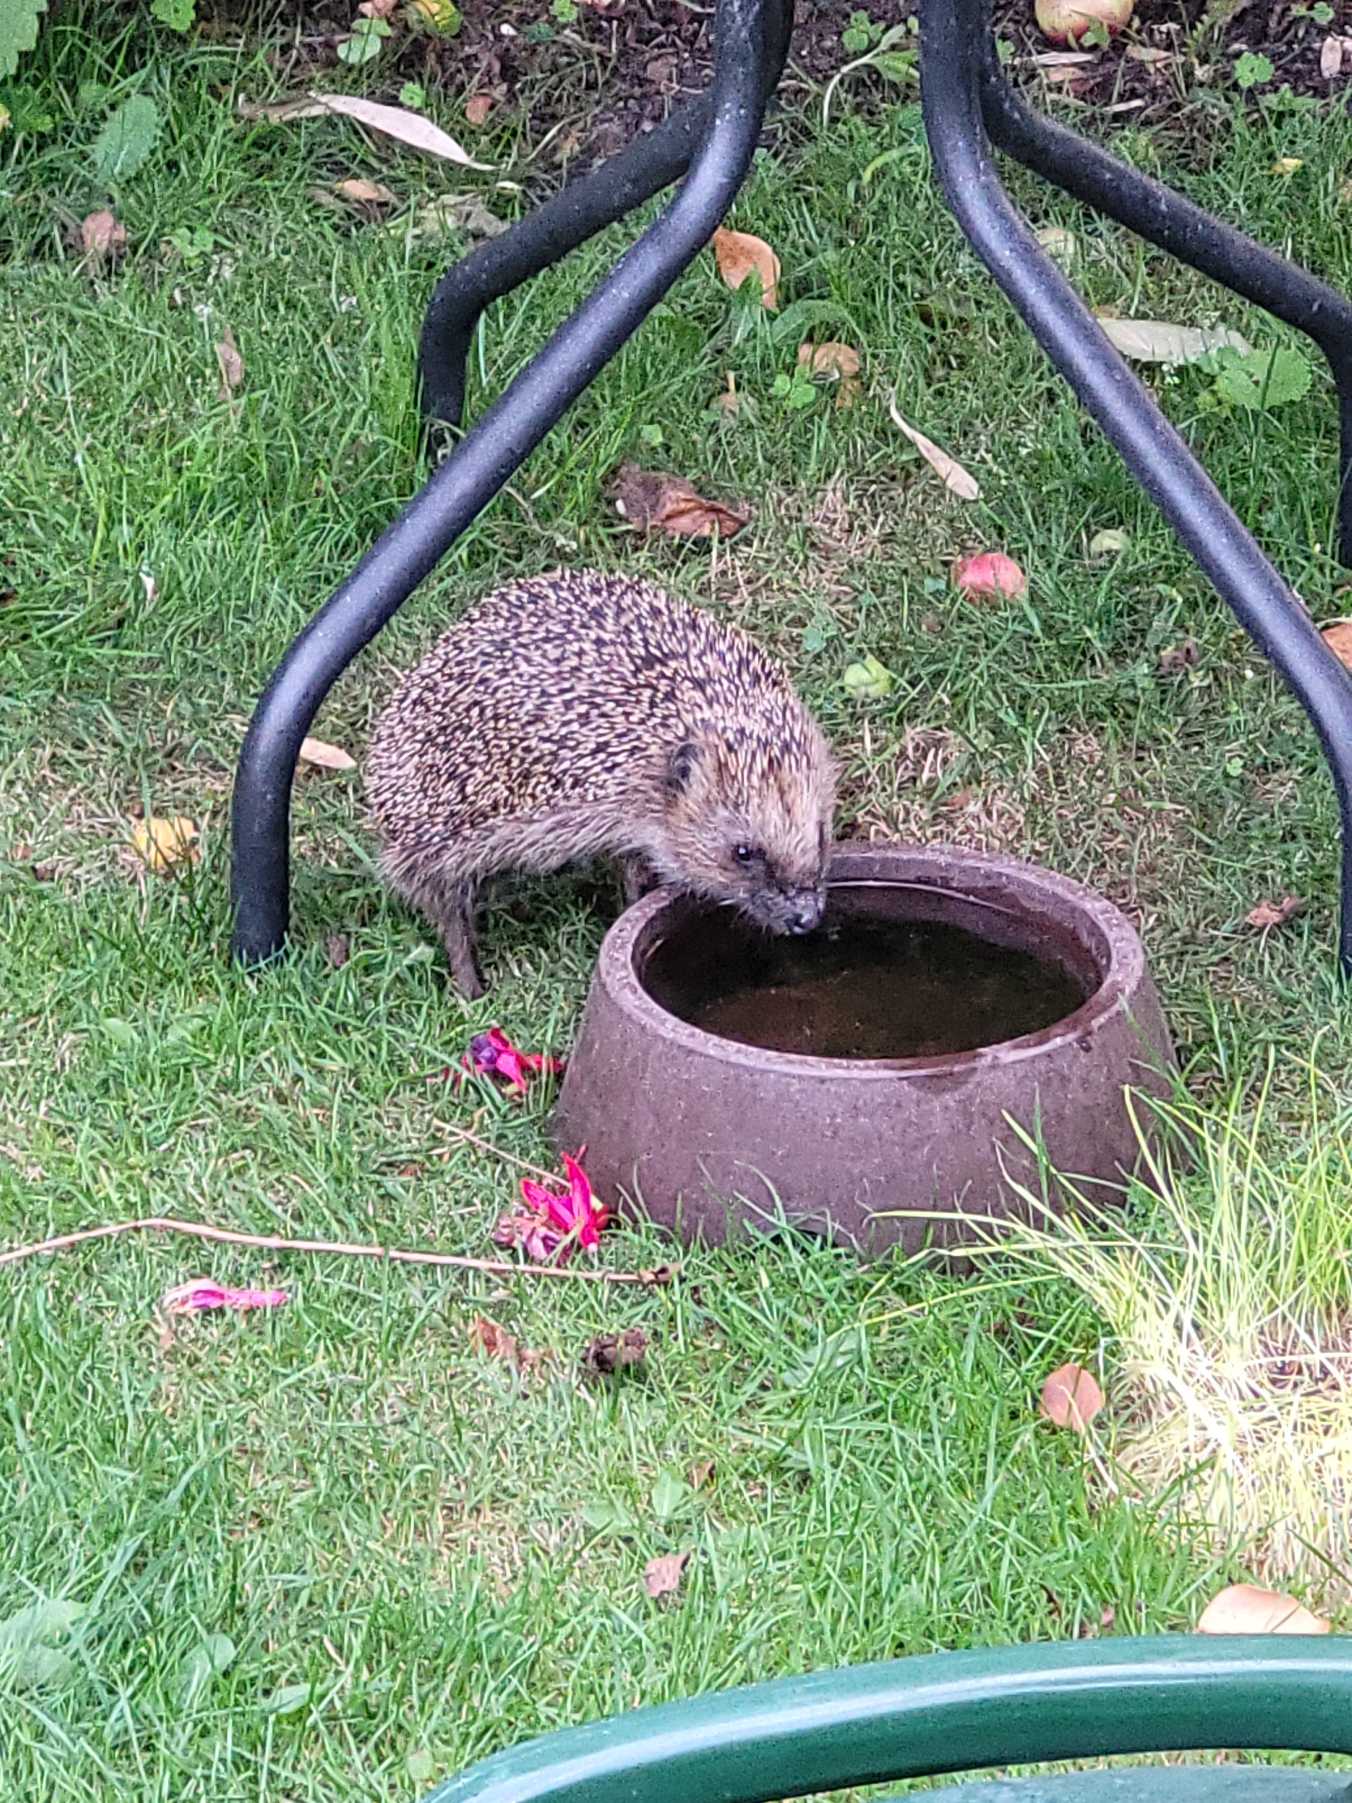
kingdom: Animalia
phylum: Chordata
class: Mammalia
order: Erinaceomorpha
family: Erinaceidae
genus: Erinaceus
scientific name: Erinaceus europaeus
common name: Pindsvin
